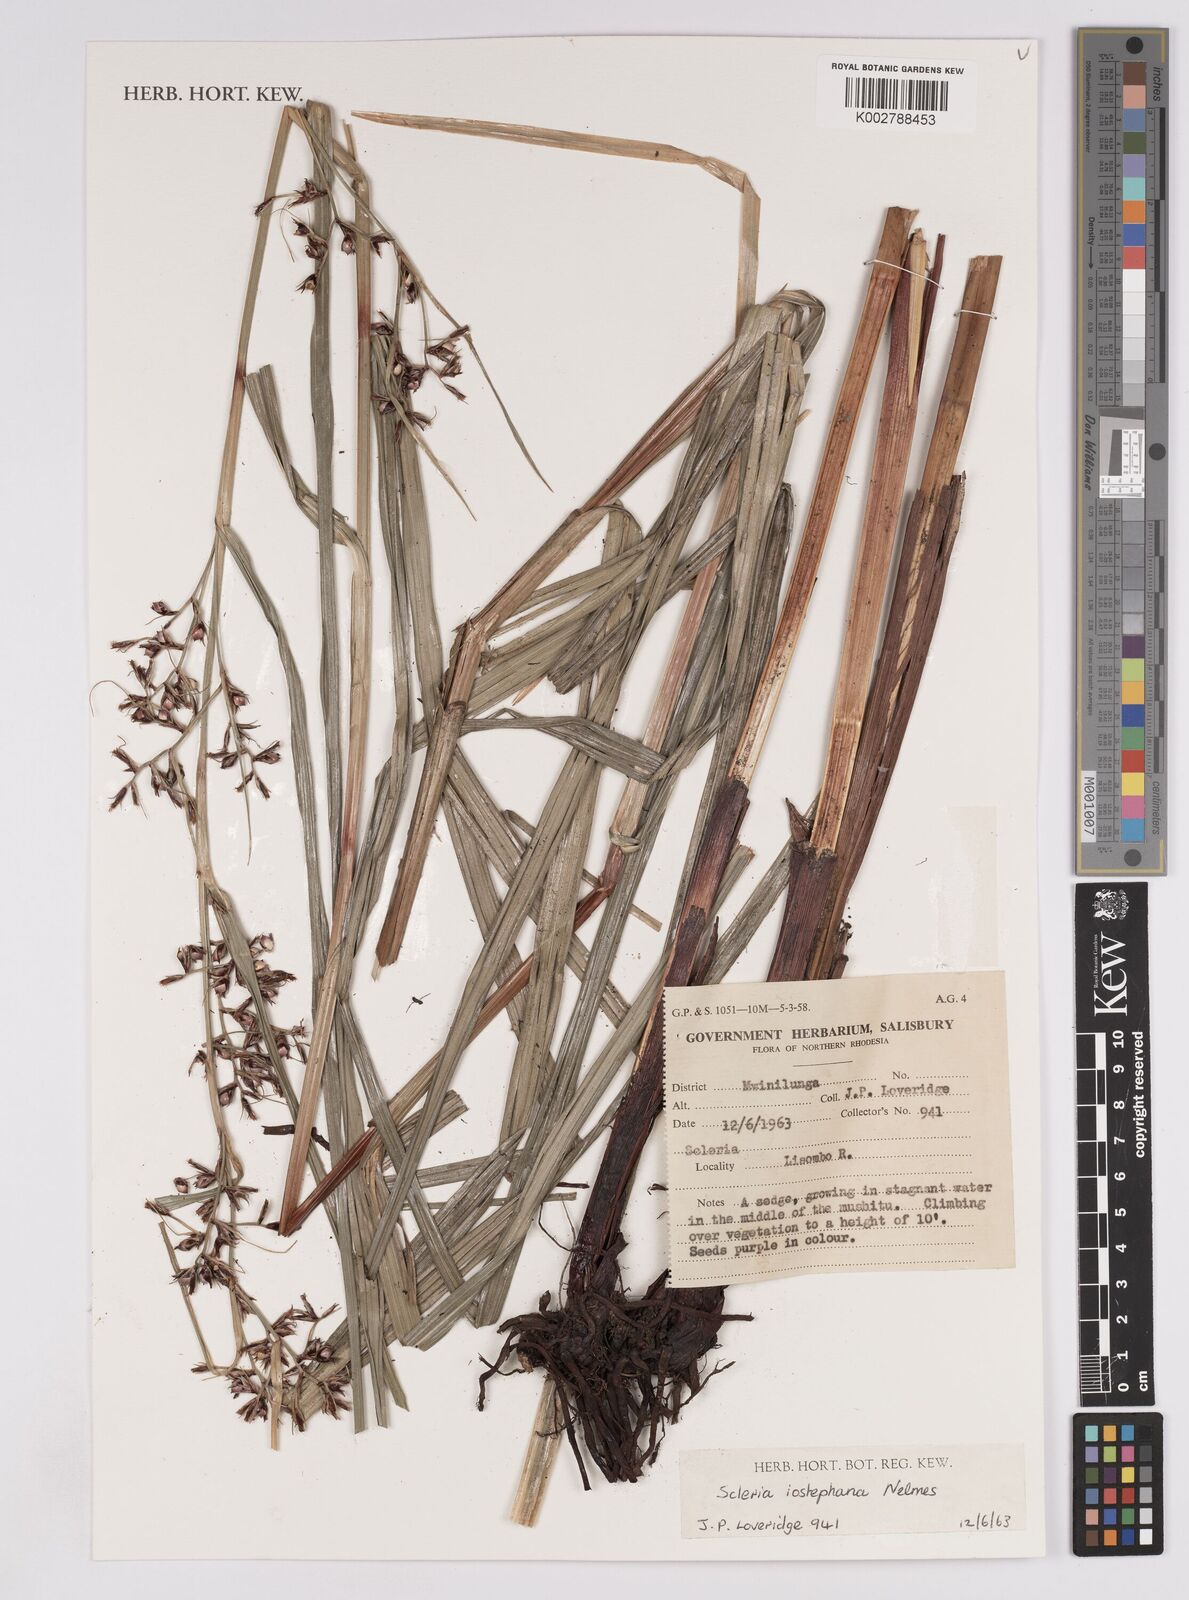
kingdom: Plantae
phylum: Tracheophyta
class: Liliopsida
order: Poales
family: Cyperaceae
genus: Scleria
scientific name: Scleria iostephana
